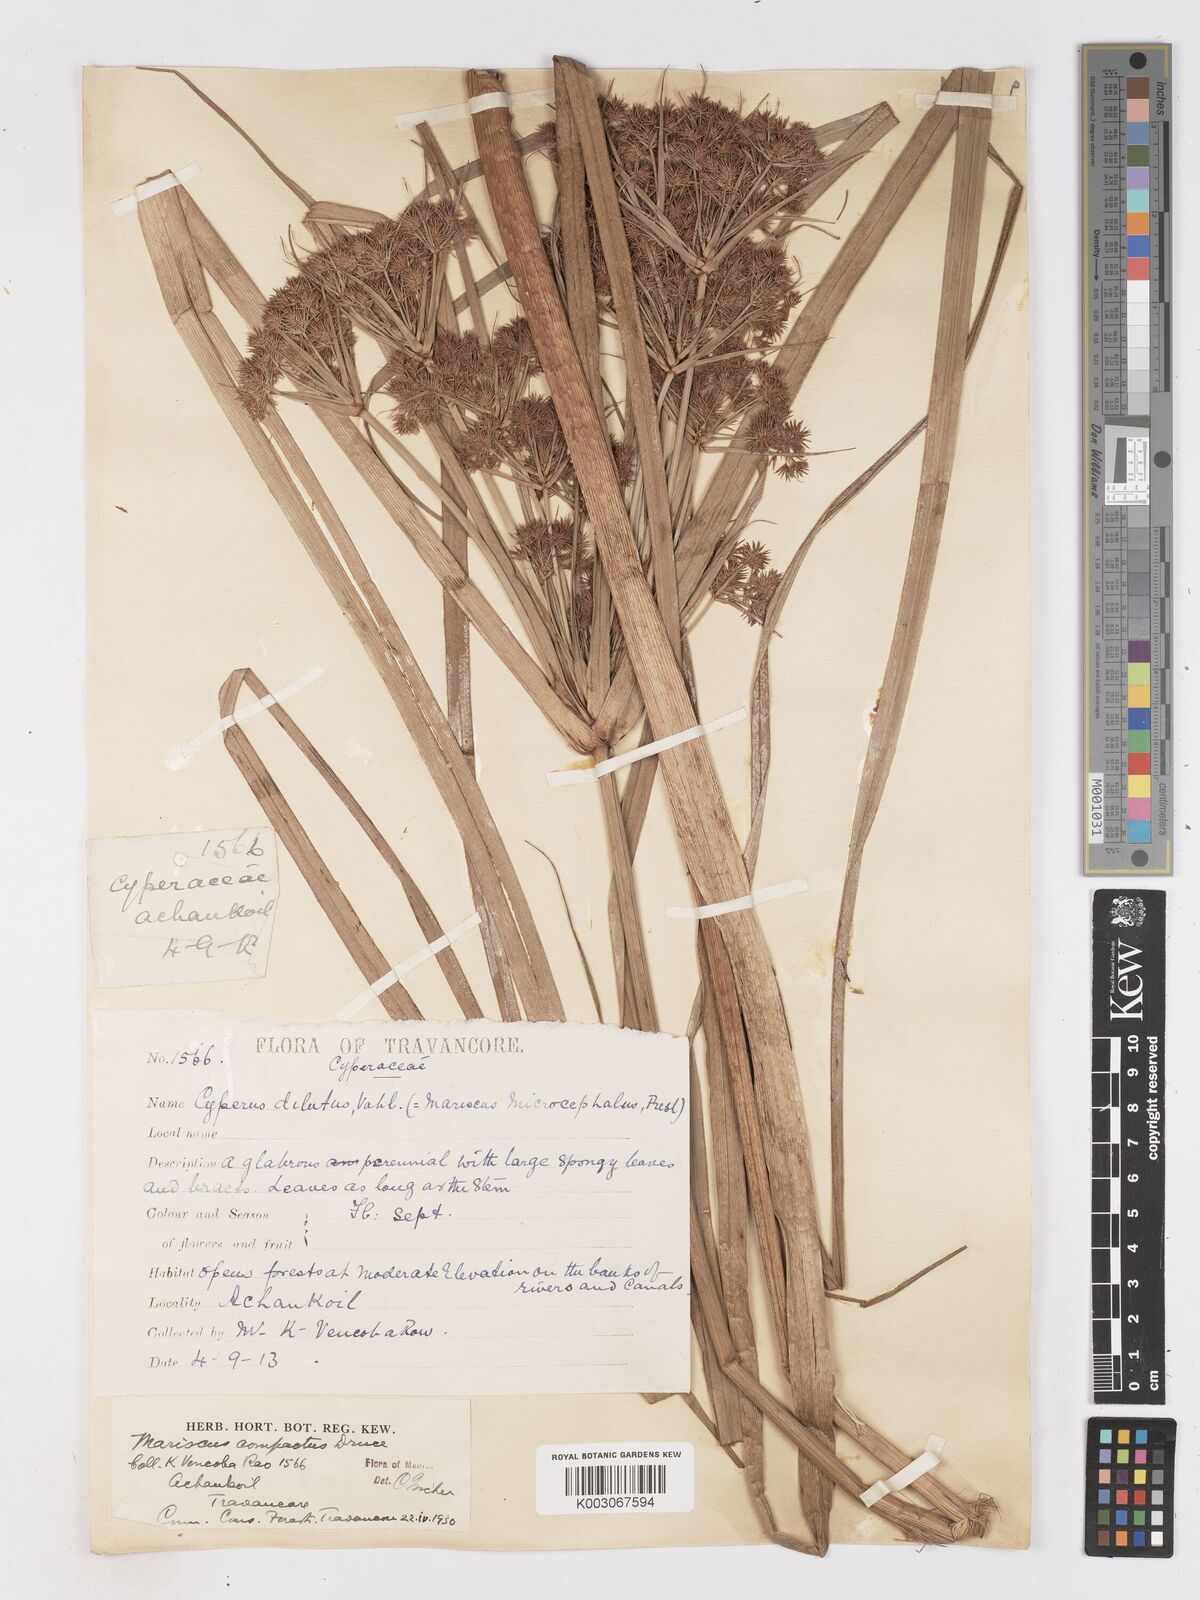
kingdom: Plantae
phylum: Tracheophyta
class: Liliopsida
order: Poales
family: Cyperaceae
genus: Cyperus
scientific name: Cyperus compactus
